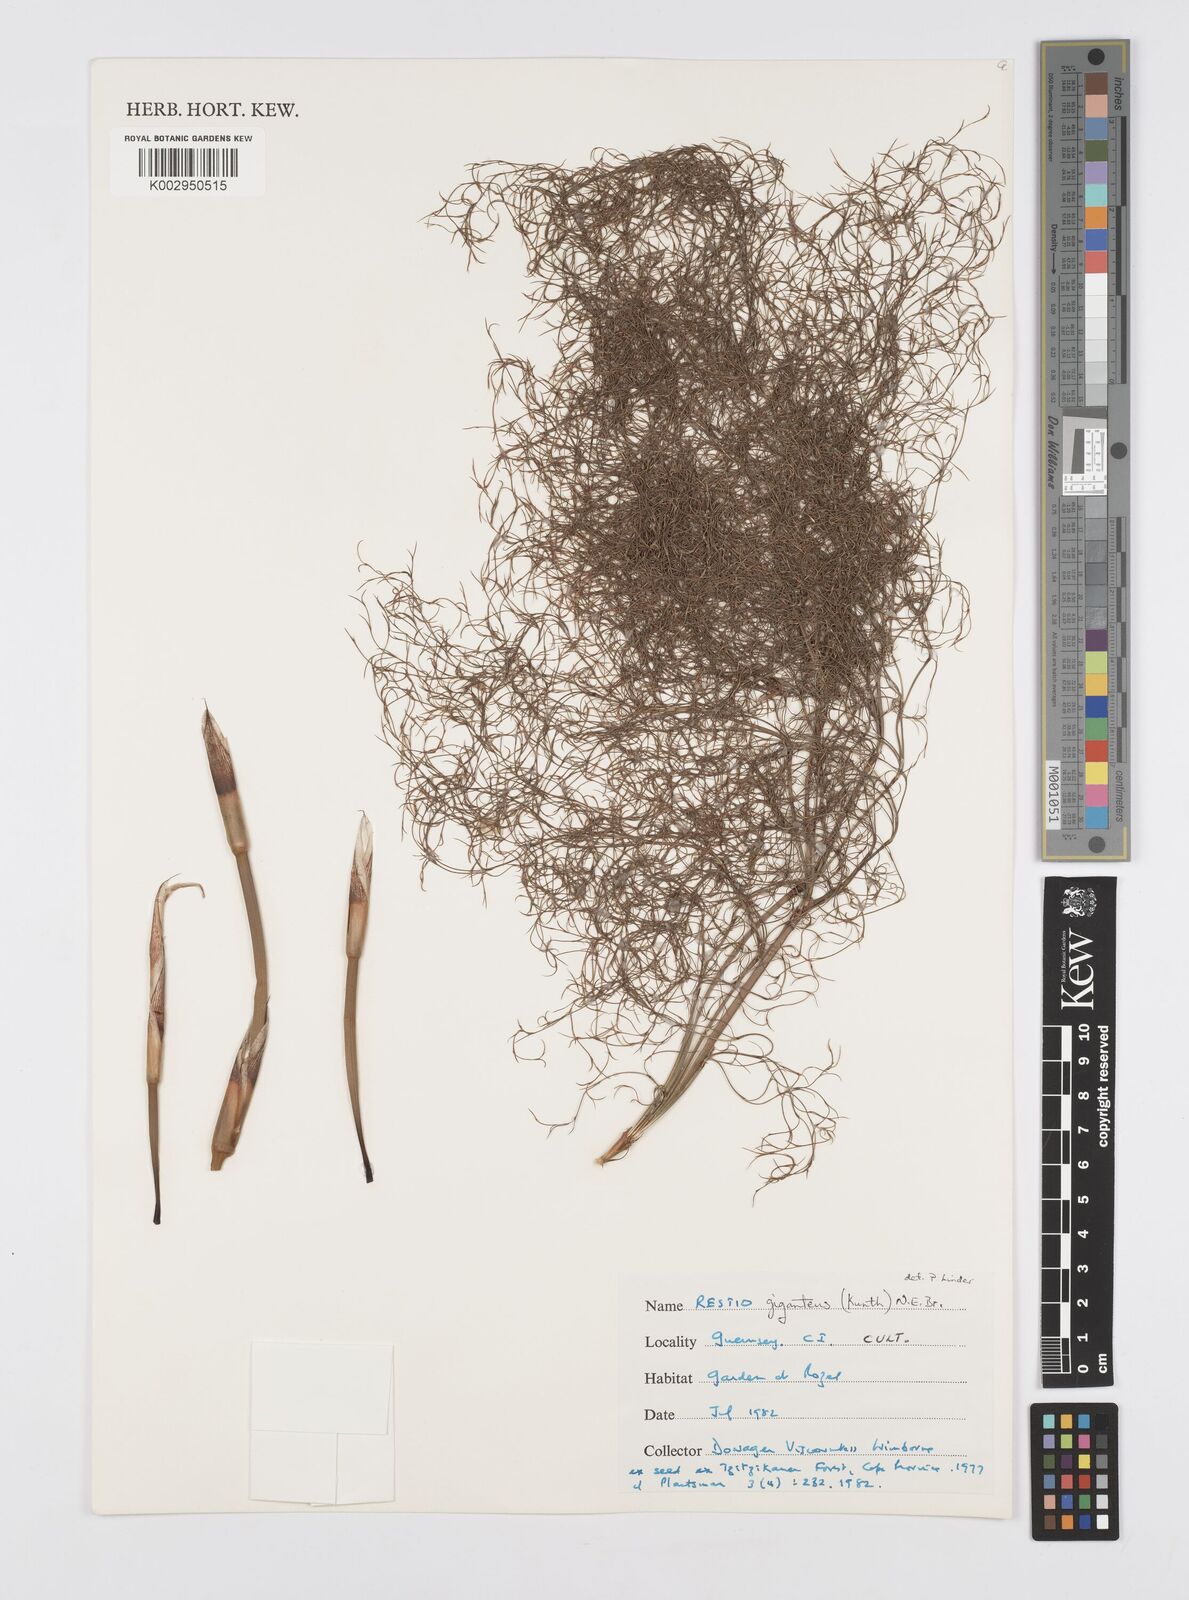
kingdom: Plantae
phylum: Tracheophyta
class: Liliopsida
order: Poales
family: Restionaceae
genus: Rhodocoma
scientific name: Rhodocoma gigantea
